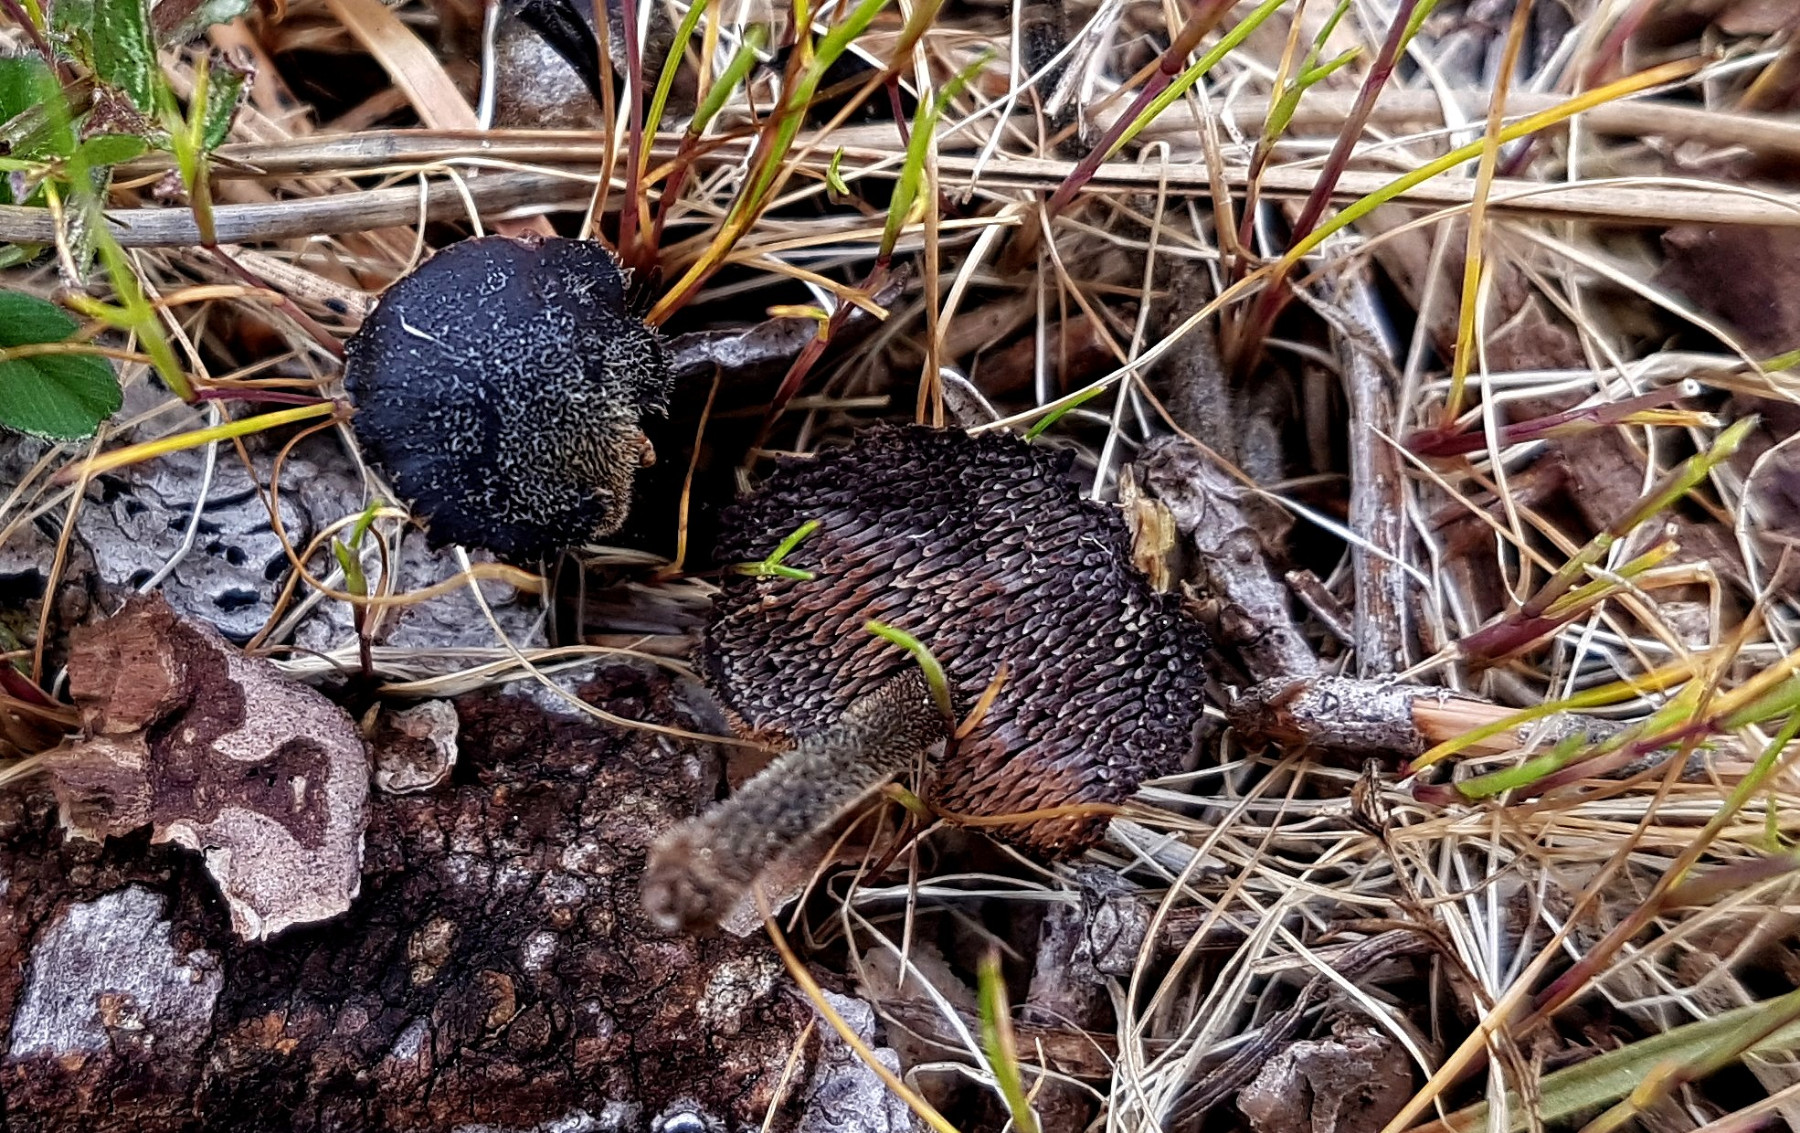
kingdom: Fungi
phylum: Basidiomycota
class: Agaricomycetes
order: Russulales
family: Auriscalpiaceae
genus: Auriscalpium
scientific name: Auriscalpium vulgare
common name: koglepigsvamp
